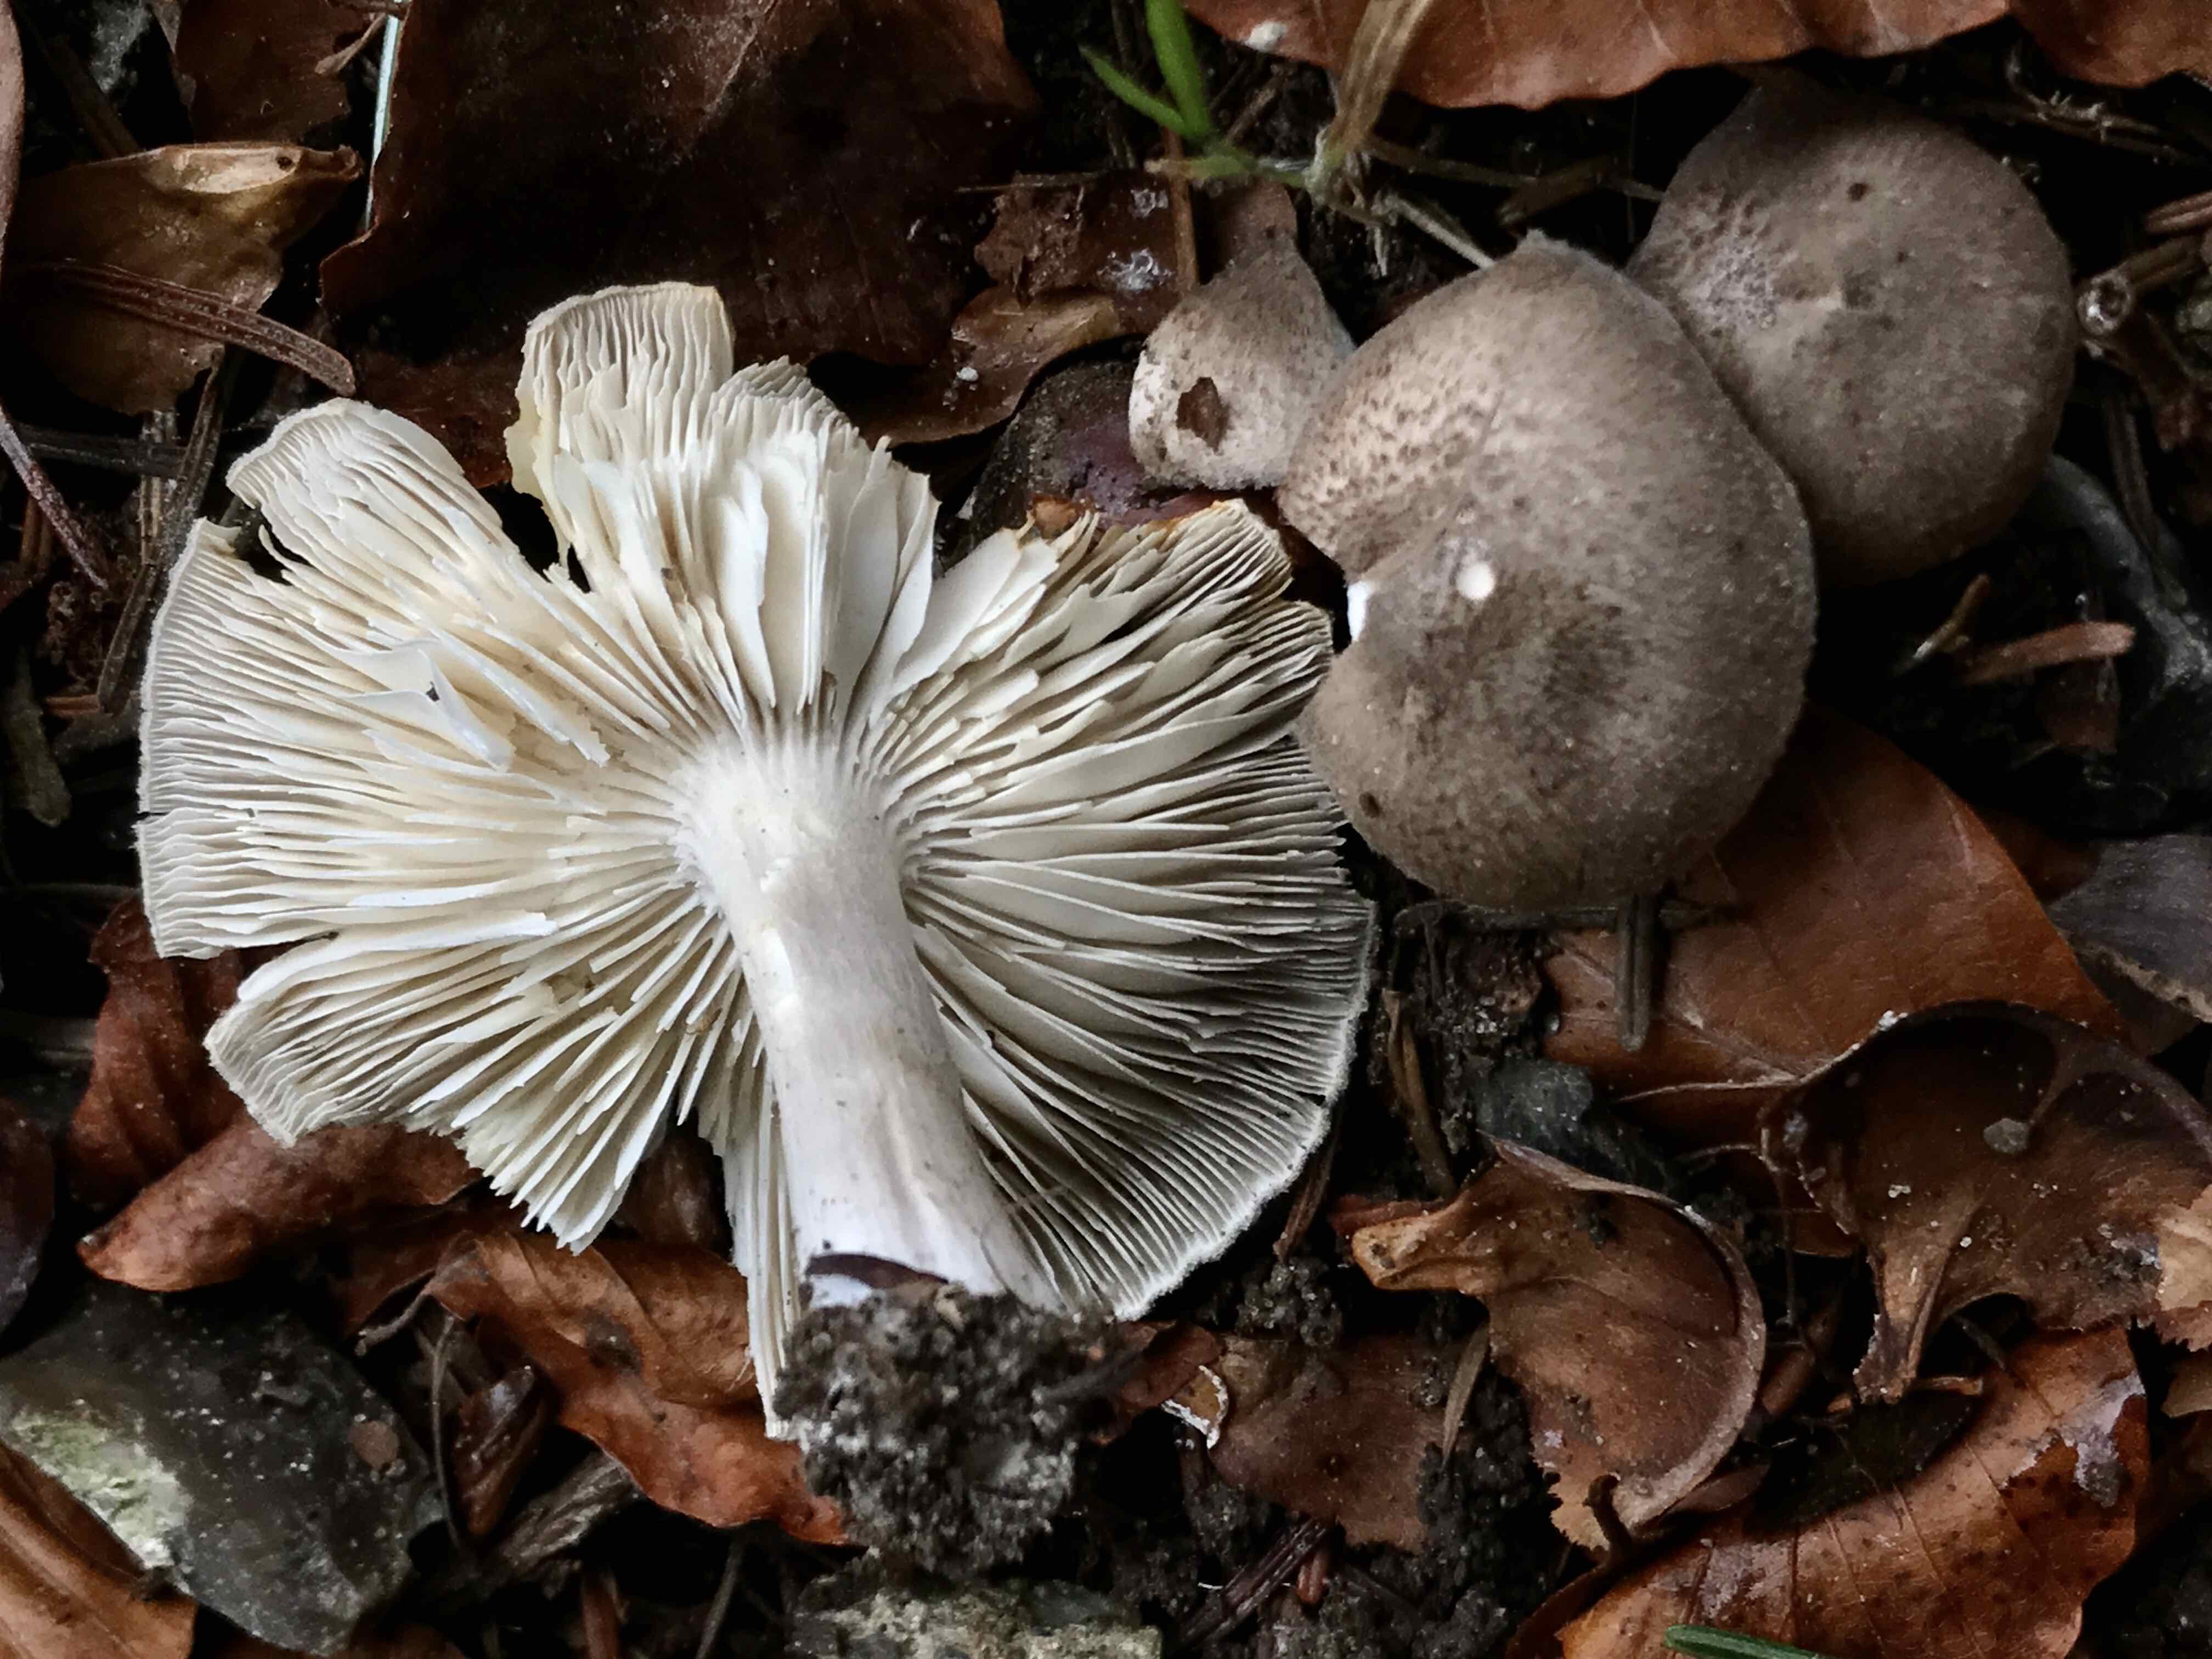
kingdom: Fungi
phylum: Basidiomycota
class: Agaricomycetes
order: Agaricales
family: Tricholomataceae
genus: Tricholoma
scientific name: Tricholoma argyraceum
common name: slør-ridderhat
